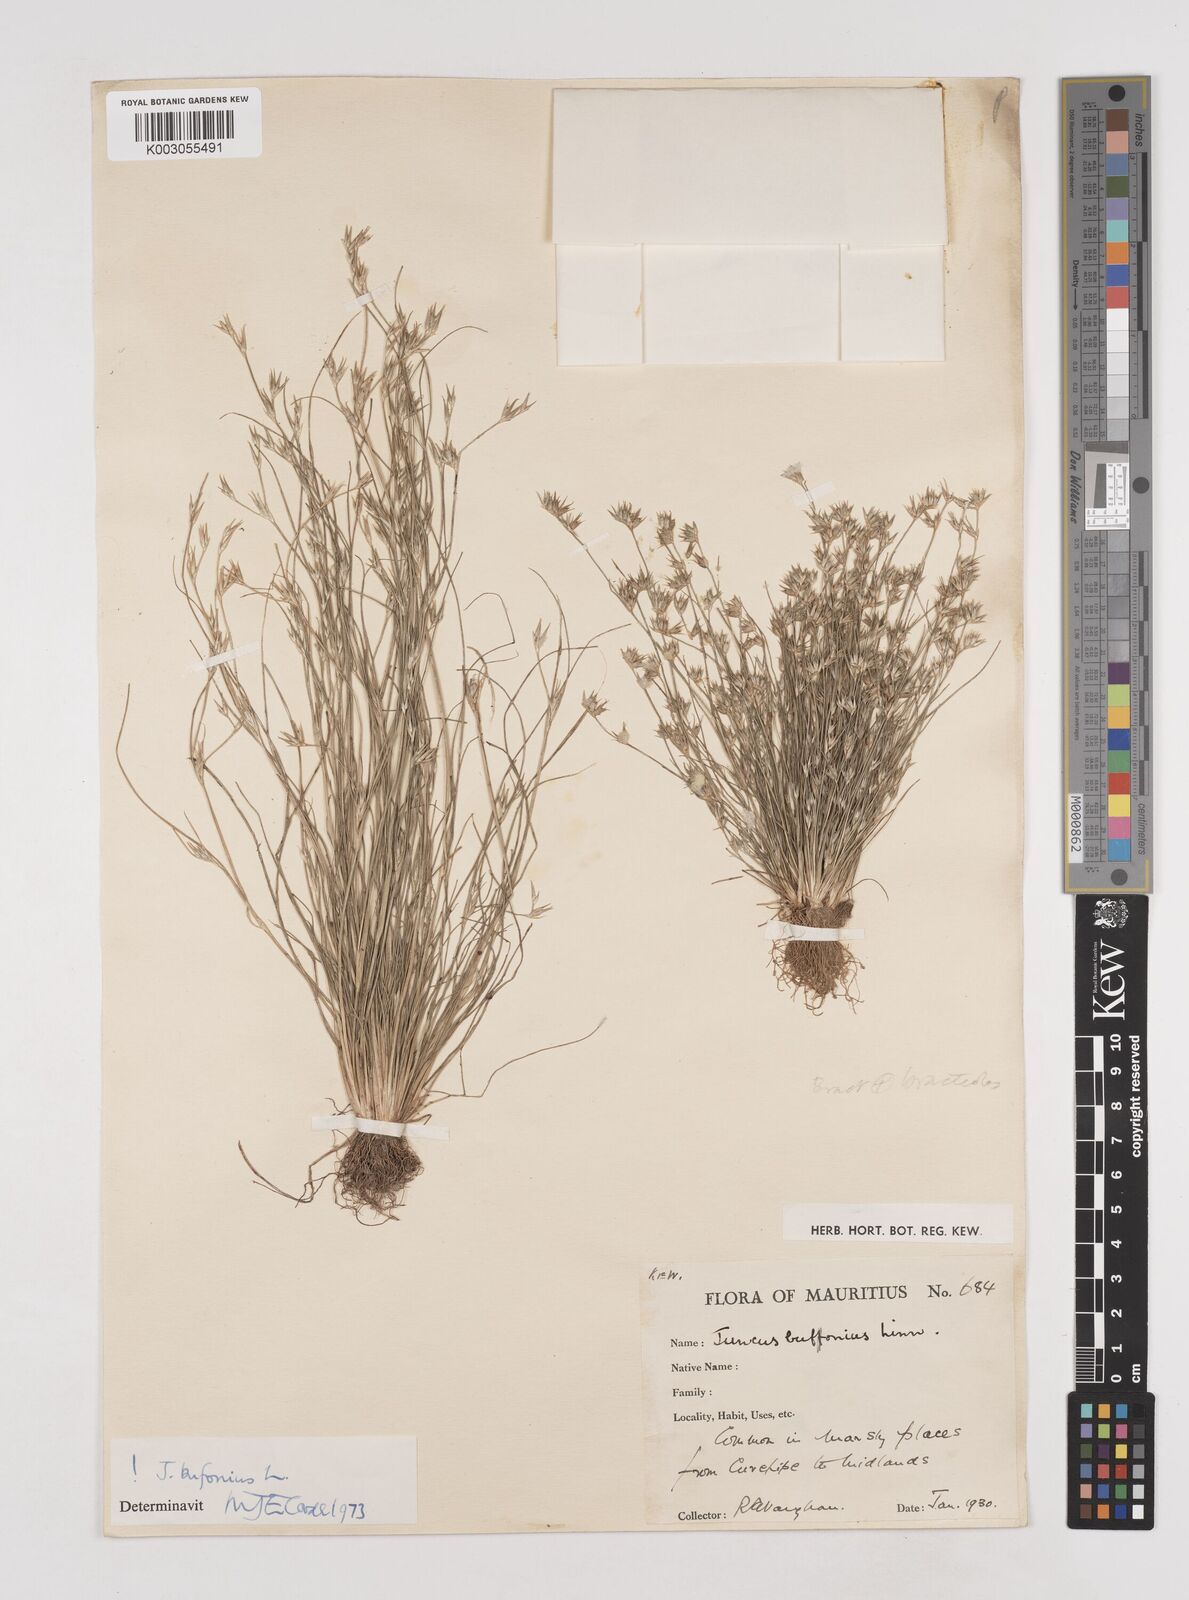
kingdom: Plantae
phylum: Tracheophyta
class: Liliopsida
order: Poales
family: Juncaceae
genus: Juncus
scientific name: Juncus bufonius
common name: Toad rush
